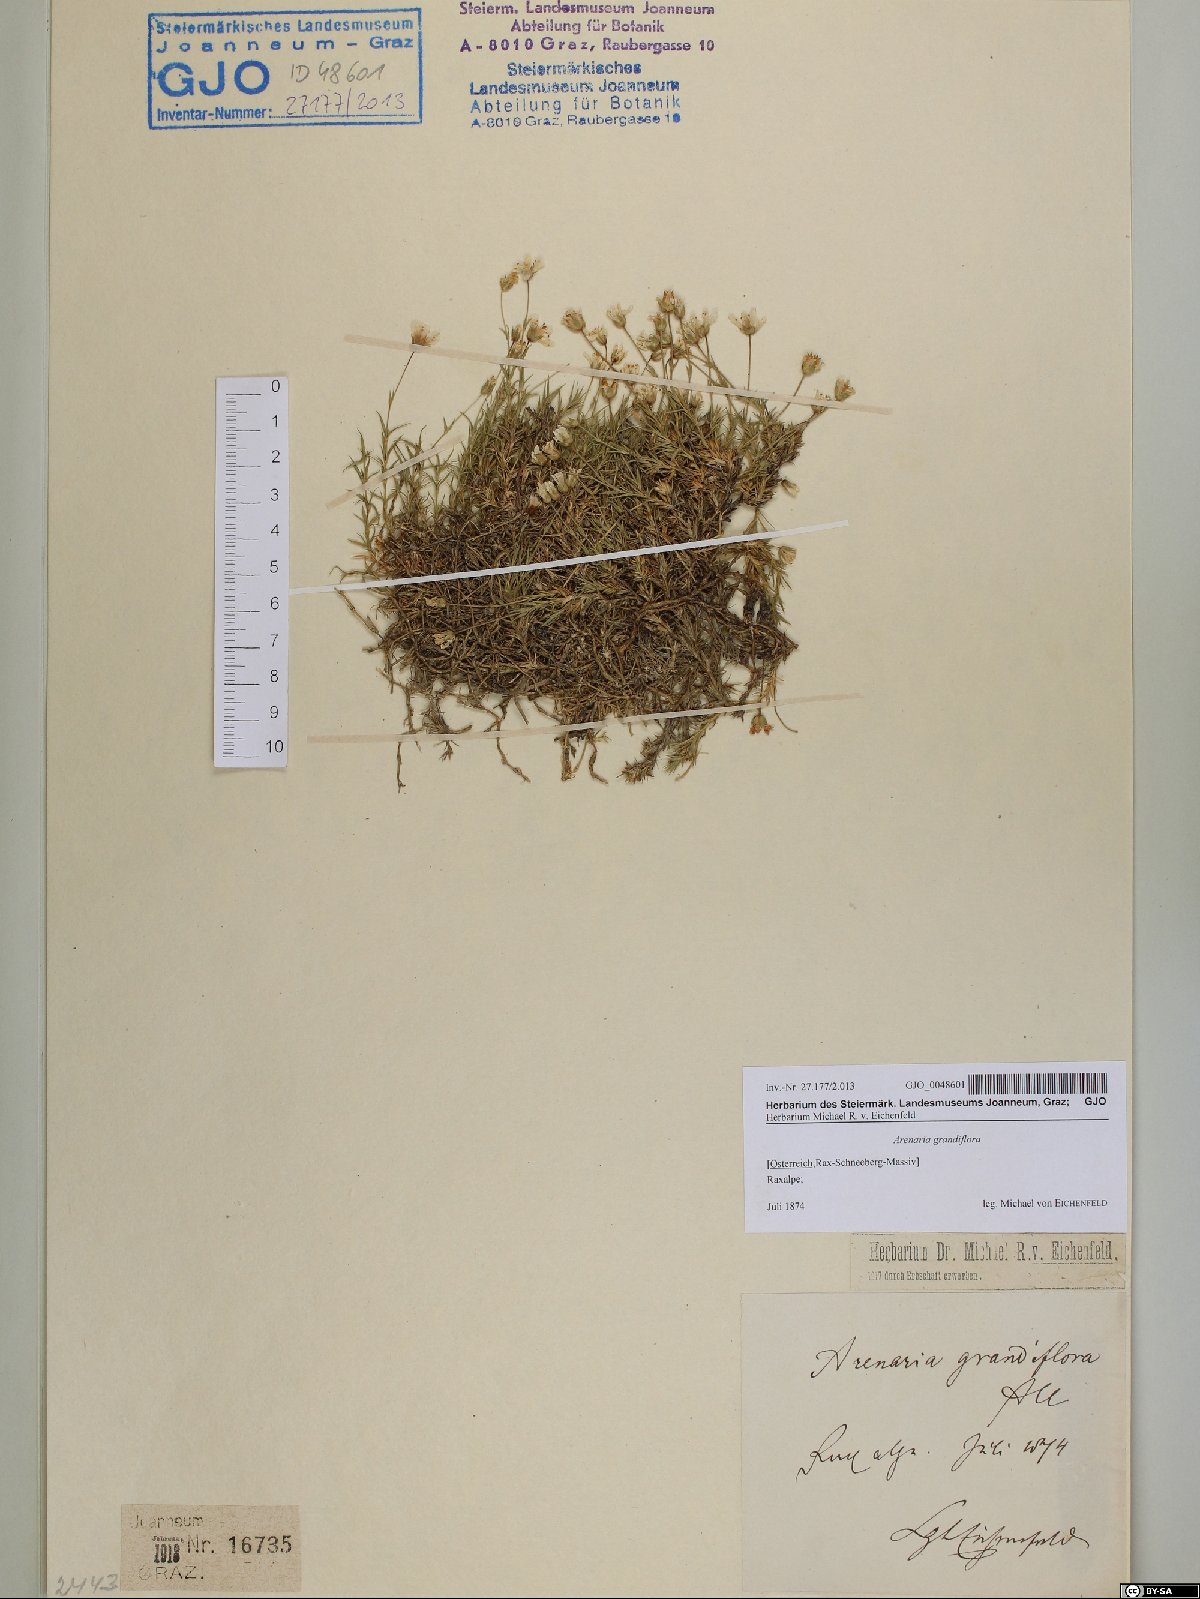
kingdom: Plantae
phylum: Tracheophyta
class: Magnoliopsida
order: Caryophyllales
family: Caryophyllaceae
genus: Arenaria
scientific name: Arenaria grandiflora
